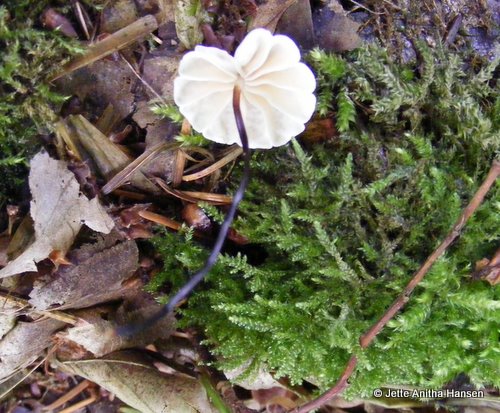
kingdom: Fungi
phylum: Basidiomycota
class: Agaricomycetes
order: Agaricales
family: Marasmiaceae
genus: Marasmius
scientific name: Marasmius rotula
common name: hjul-bruskhat
